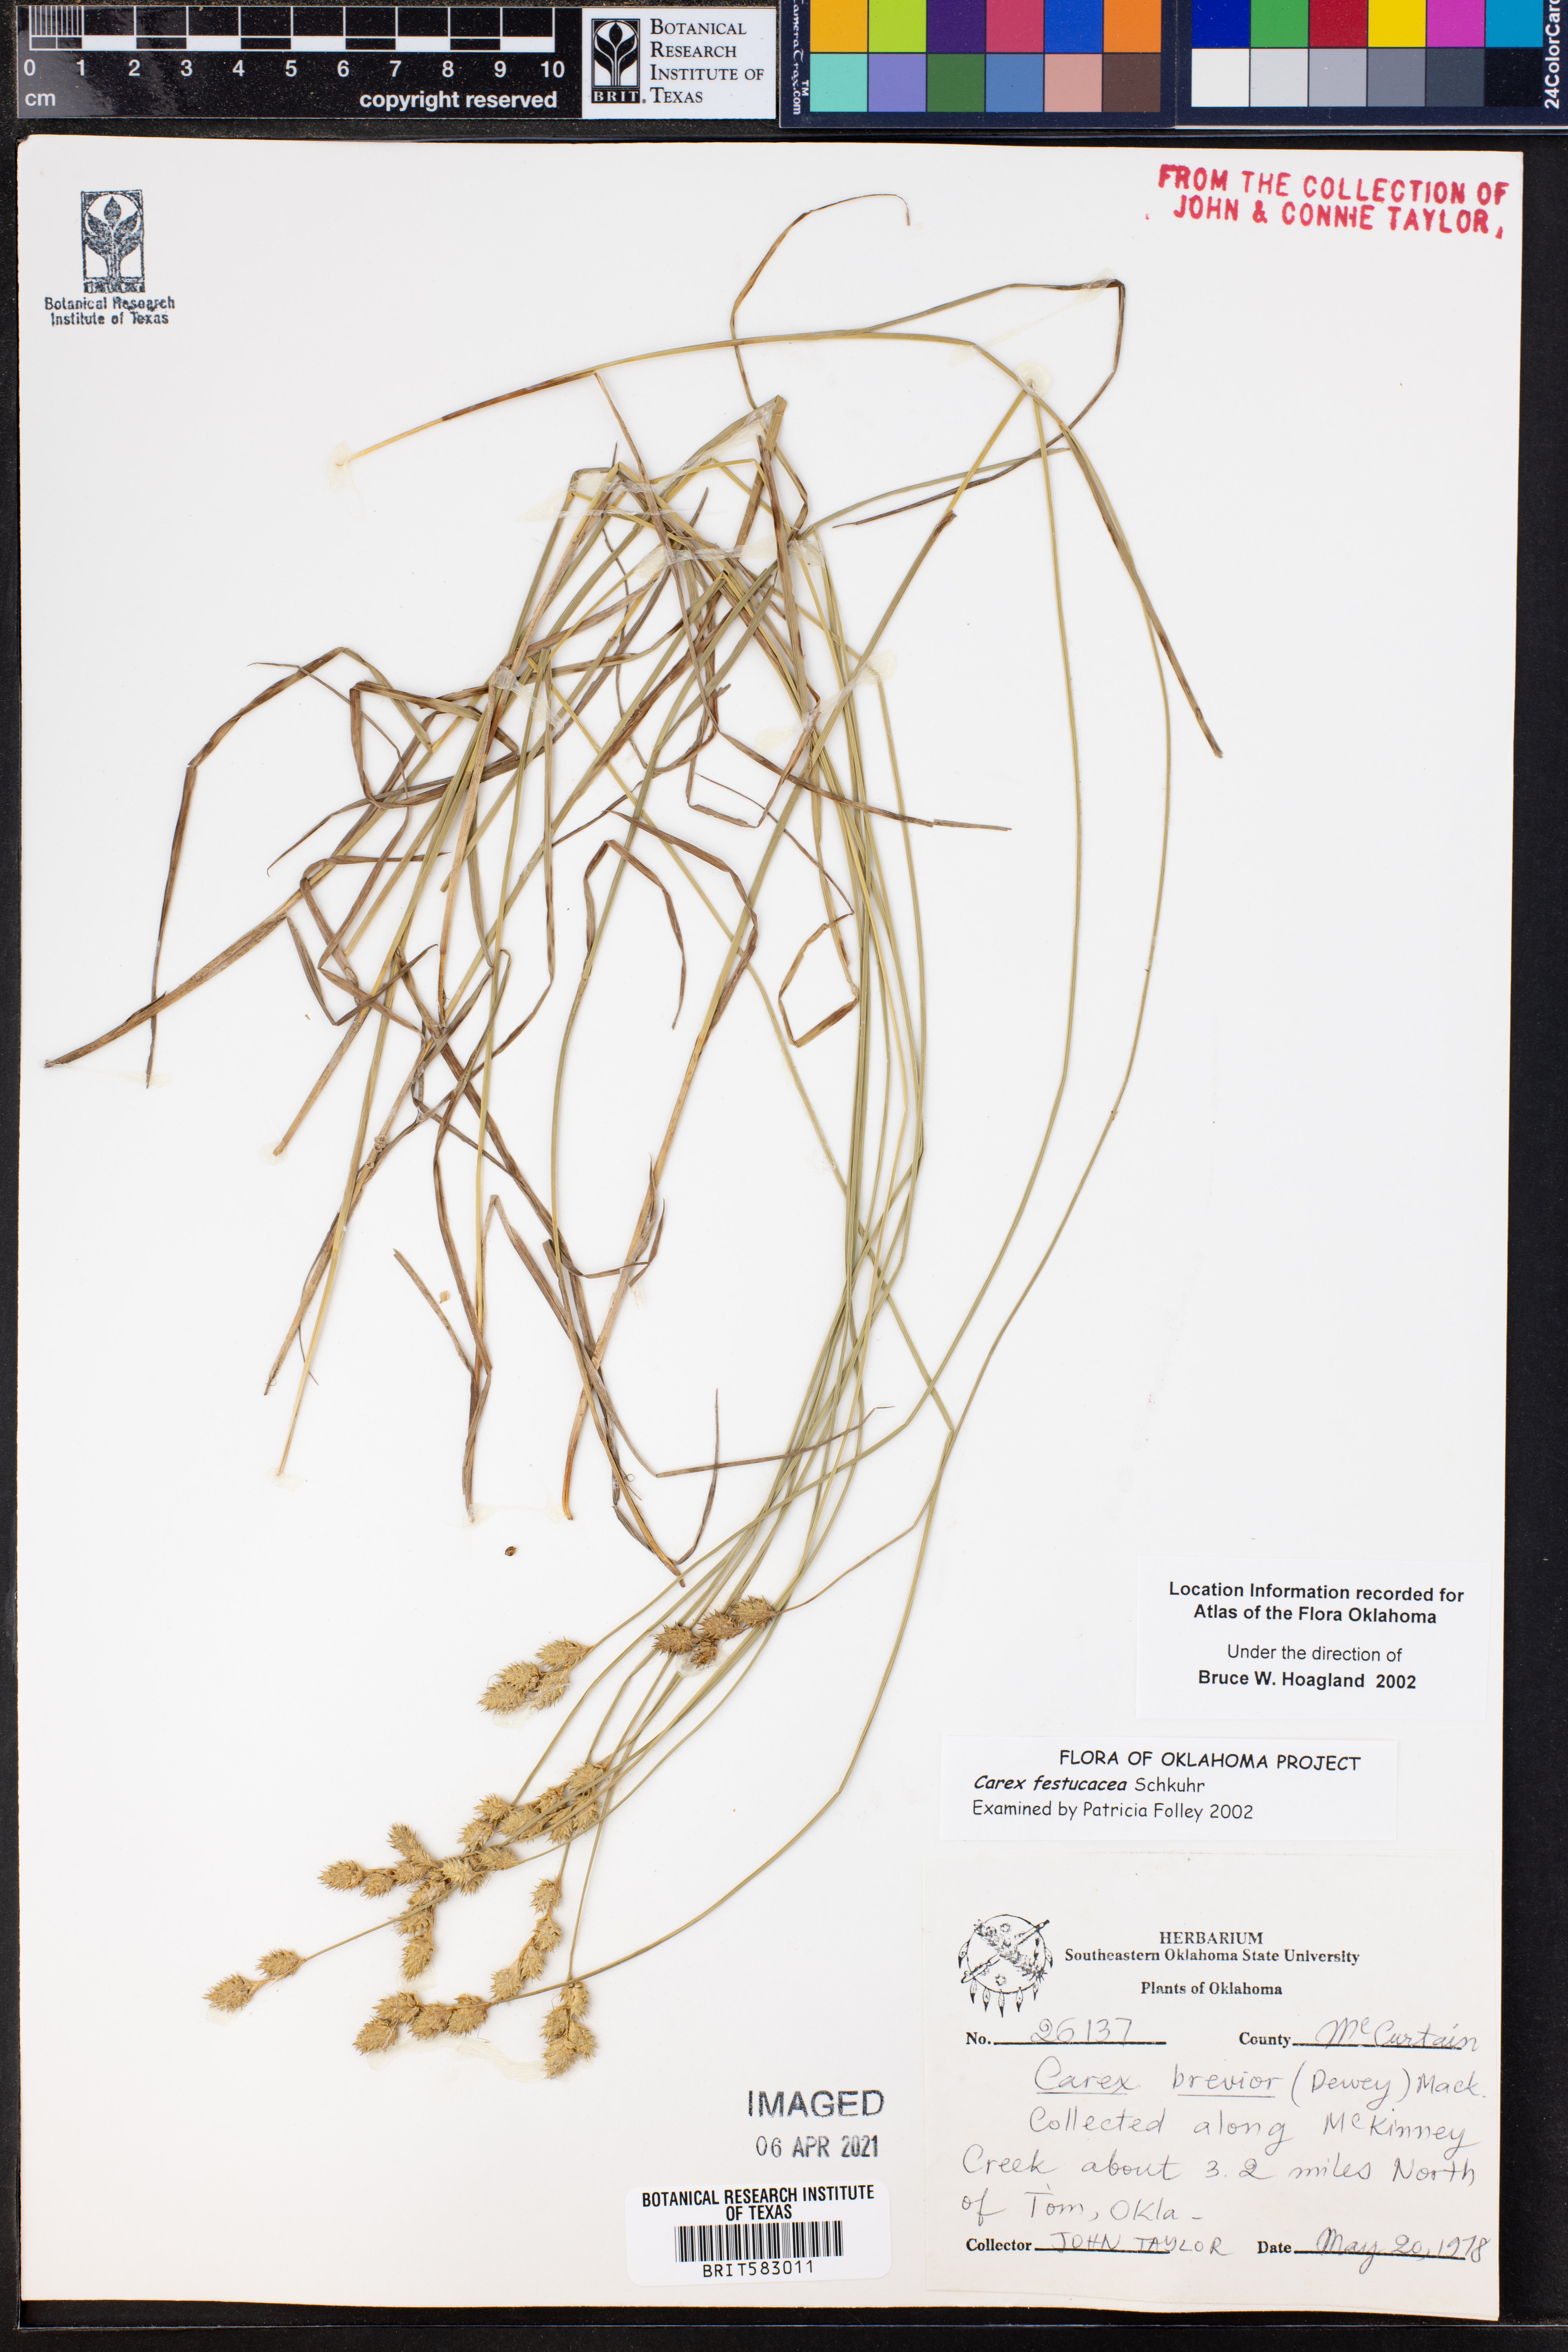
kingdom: Plantae
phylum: Tracheophyta
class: Liliopsida
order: Poales
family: Cyperaceae
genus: Carex
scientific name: Carex festucacea
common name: Fescue oval sedge
